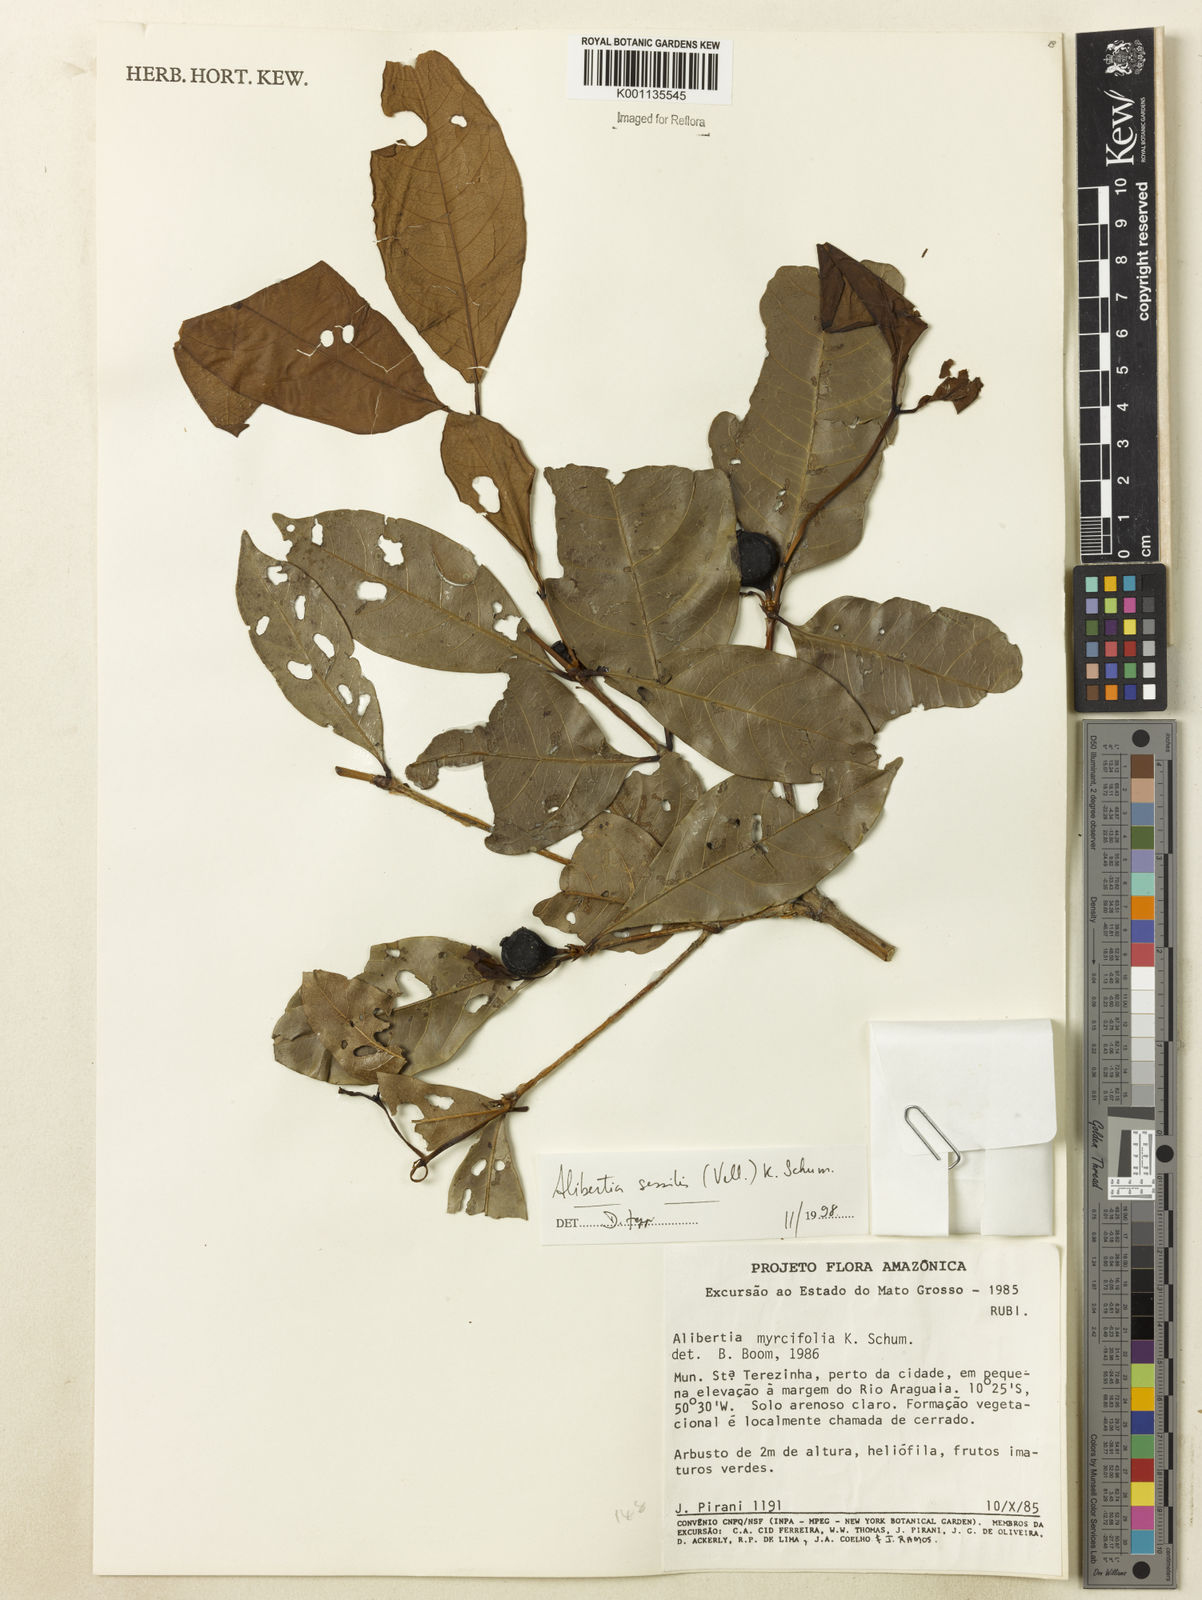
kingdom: Plantae
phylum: Tracheophyta
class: Magnoliopsida
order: Gentianales
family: Rubiaceae
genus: Cordiera
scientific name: Cordiera sessilis
